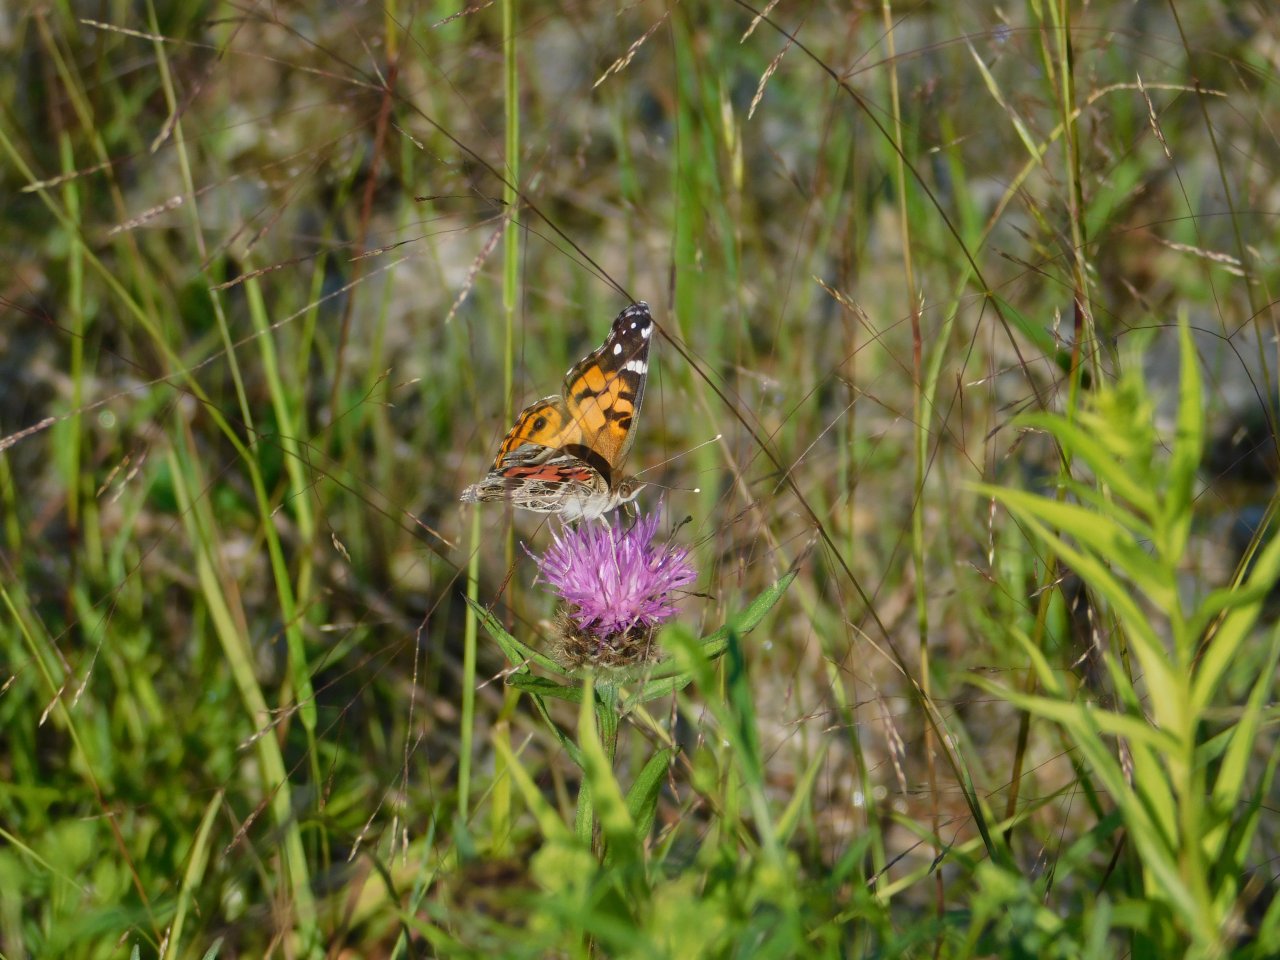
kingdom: Animalia
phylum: Arthropoda
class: Insecta
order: Lepidoptera
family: Nymphalidae
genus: Vanessa
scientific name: Vanessa virginiensis
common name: American Lady
